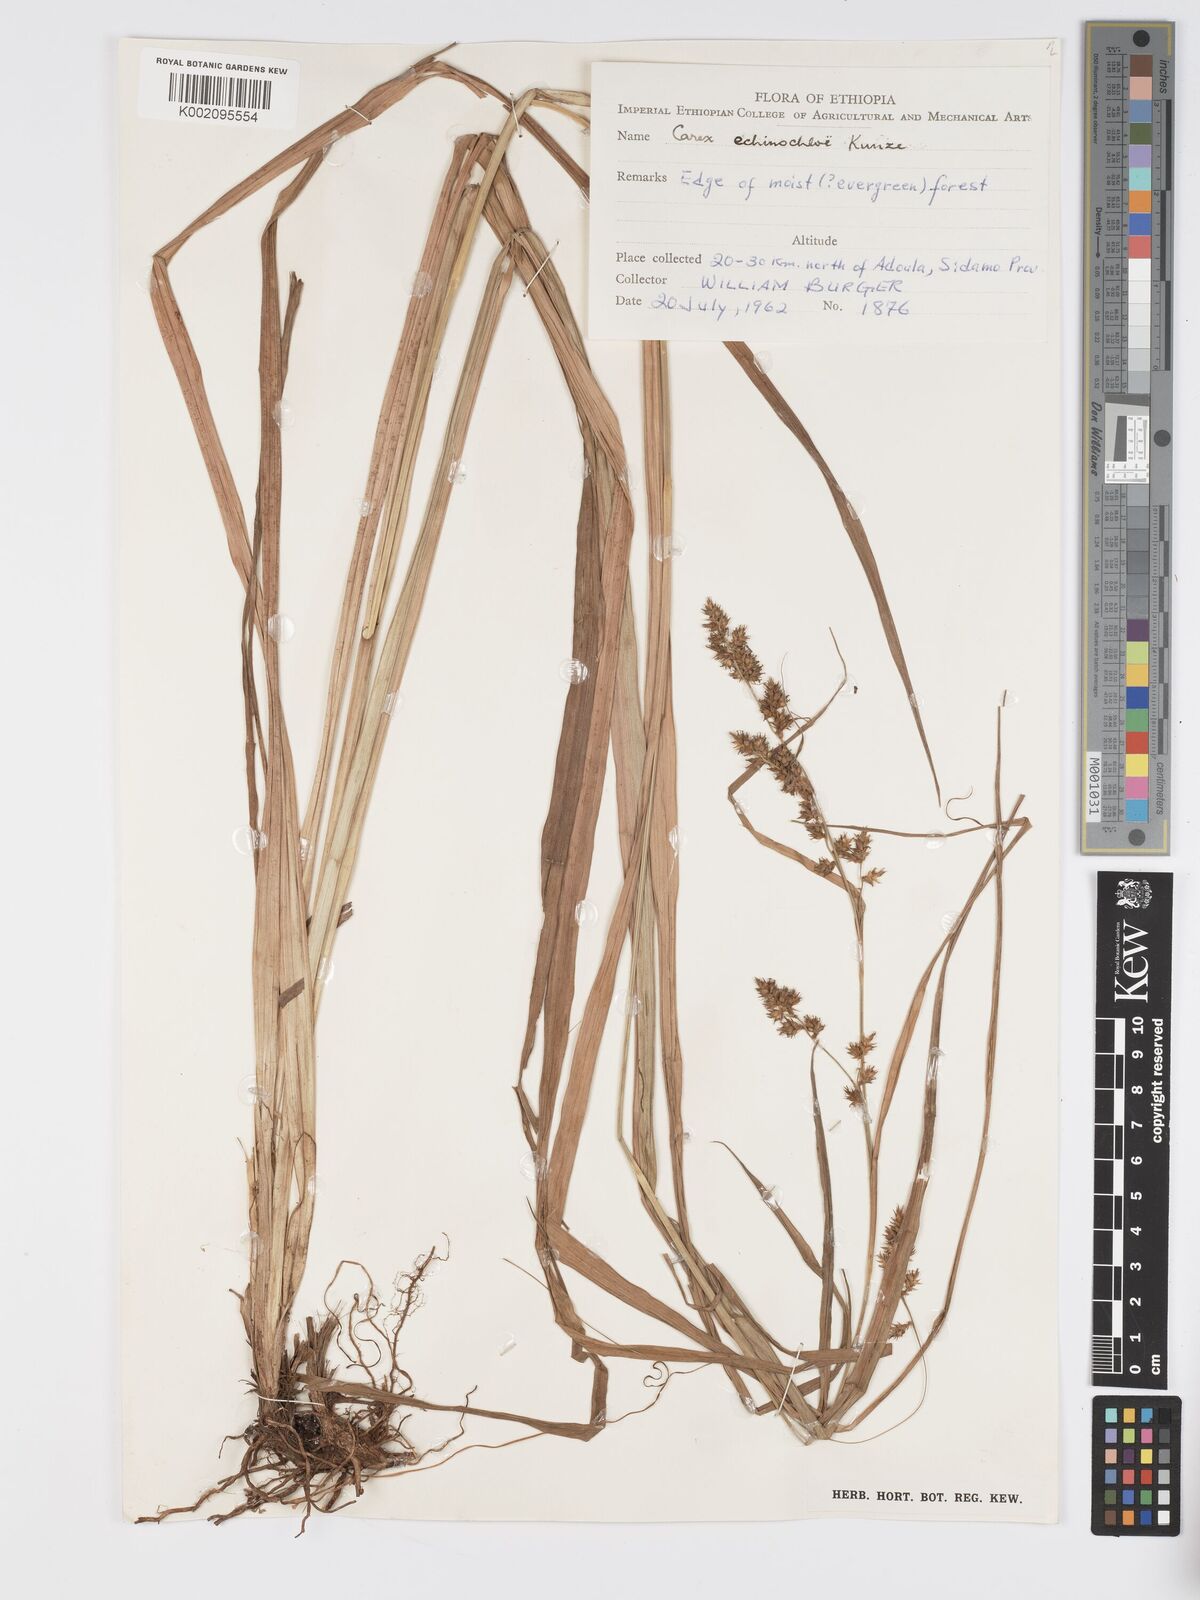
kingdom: Plantae
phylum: Tracheophyta
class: Liliopsida
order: Poales
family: Cyperaceae
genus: Carex
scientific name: Carex echinochloe
